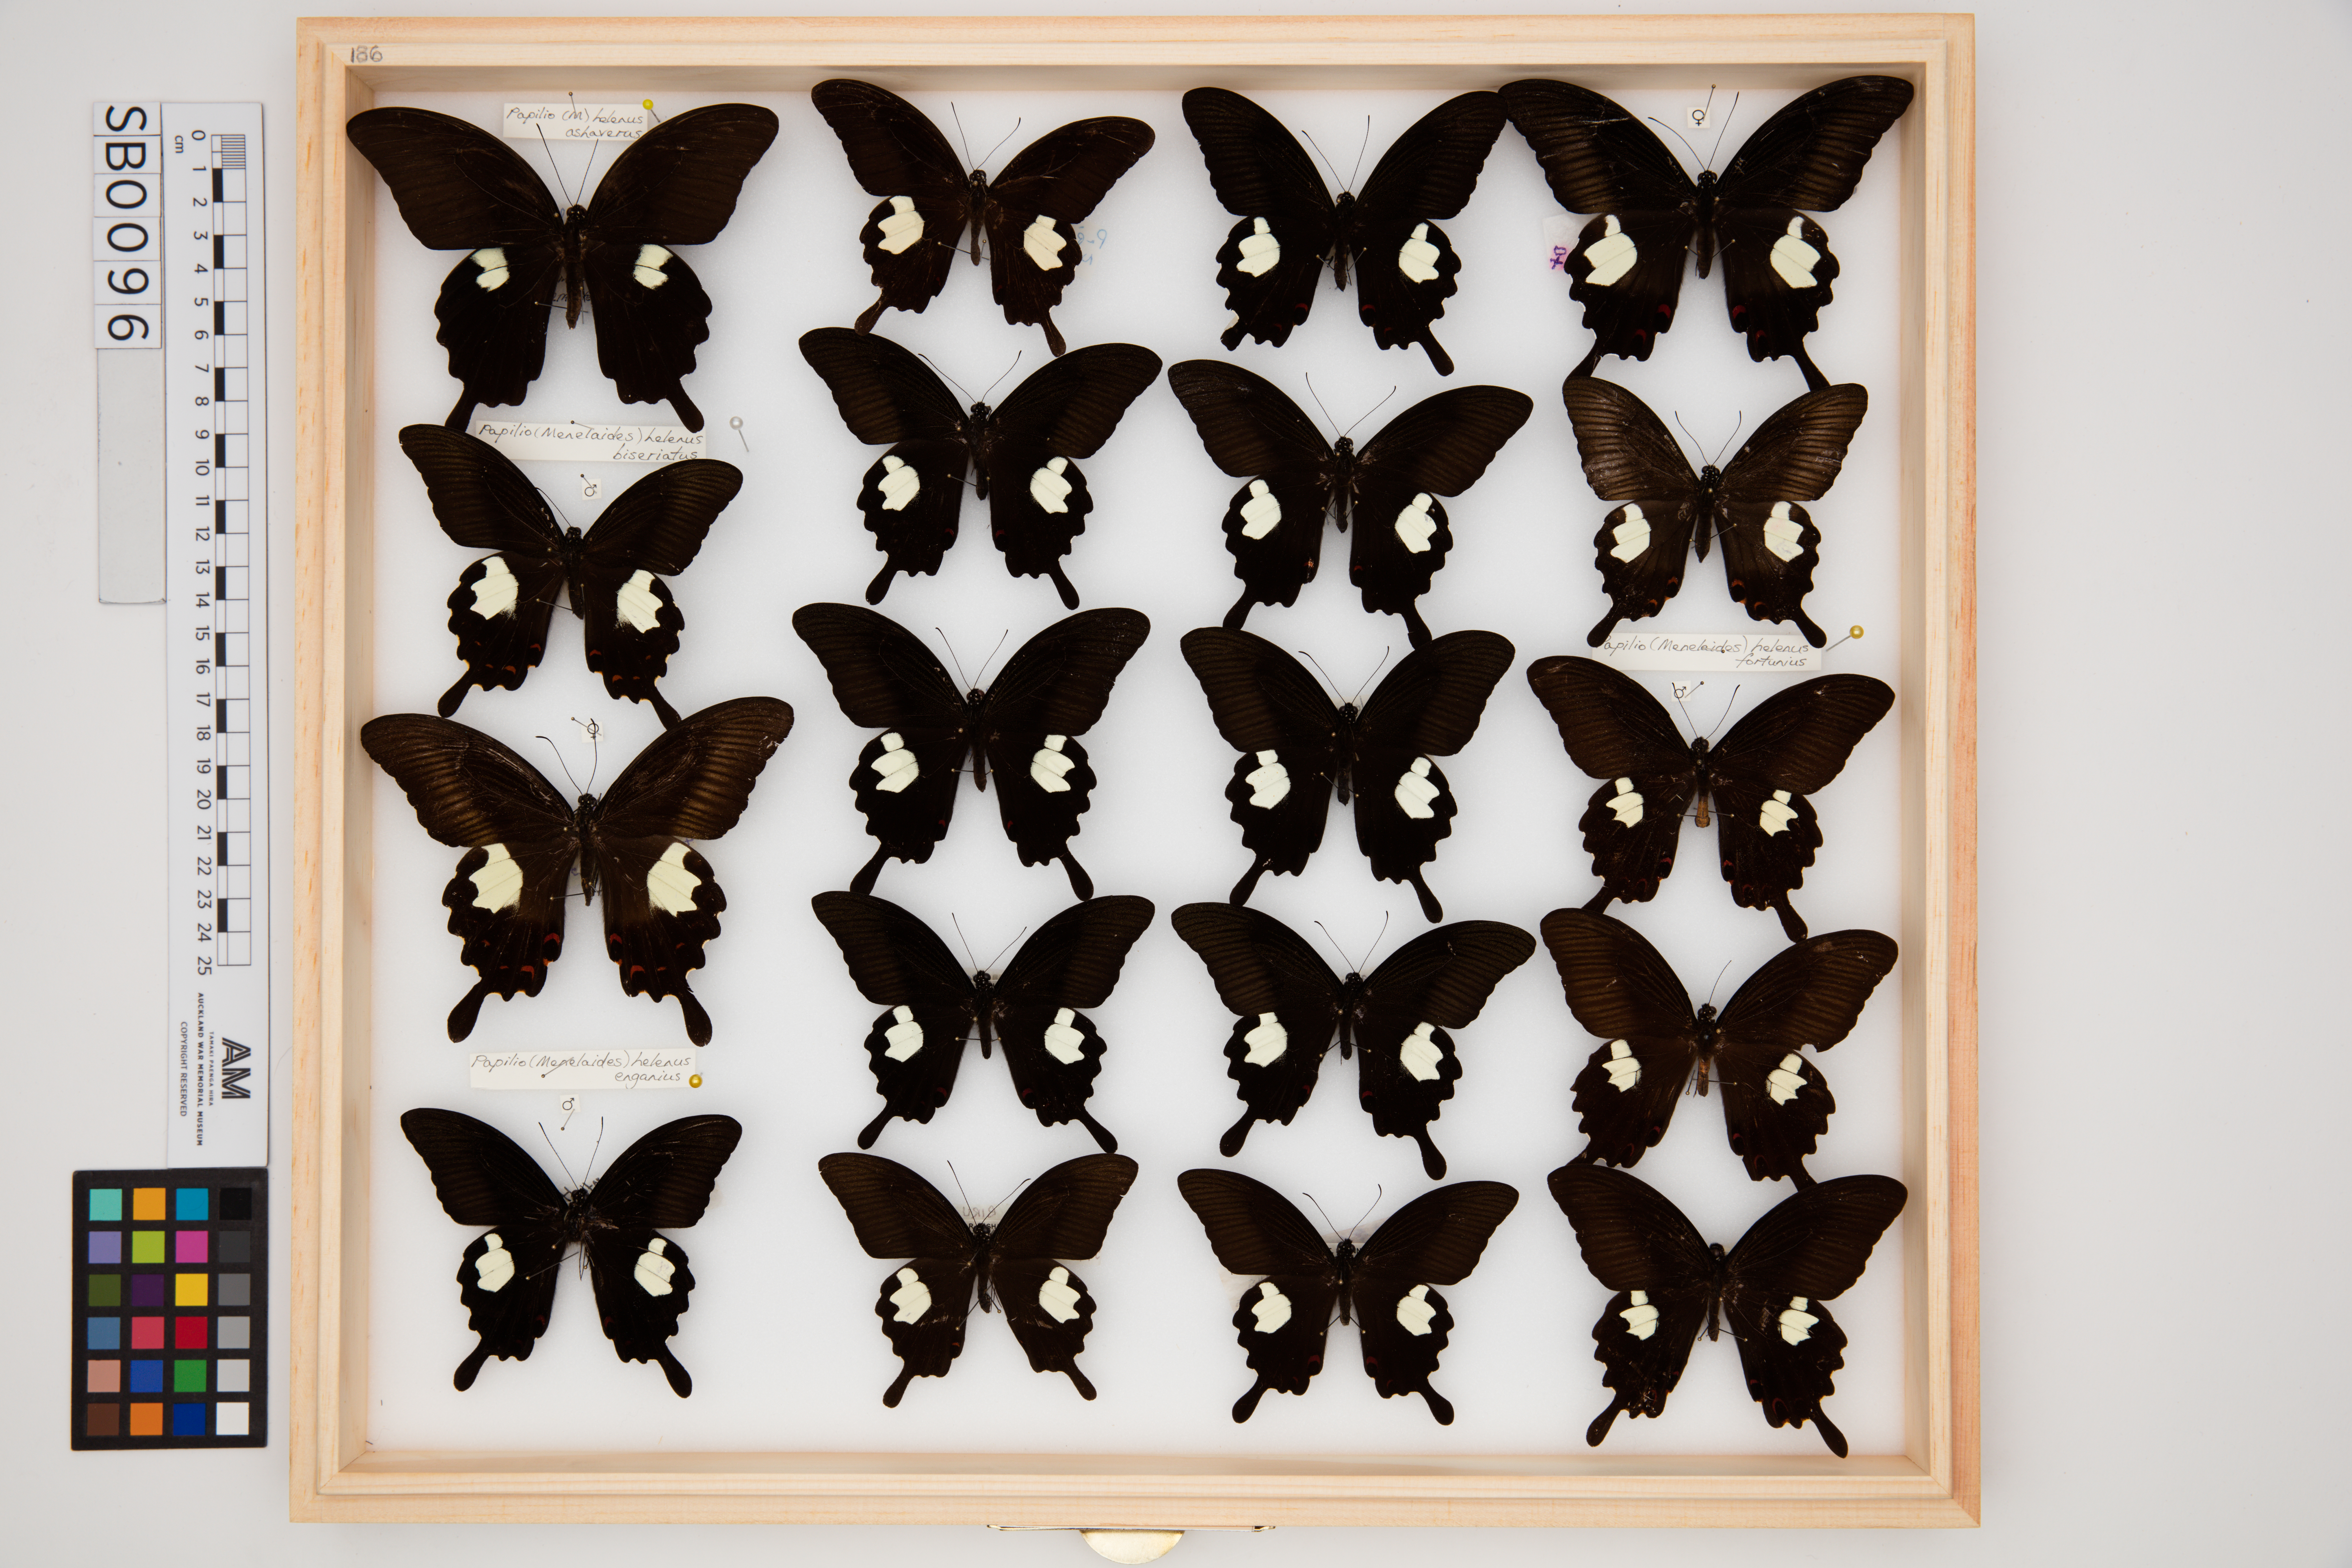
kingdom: Animalia
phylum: Arthropoda
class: Insecta
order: Lepidoptera
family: Papilionidae
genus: Papilio
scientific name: Papilio helenus
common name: Red helen
